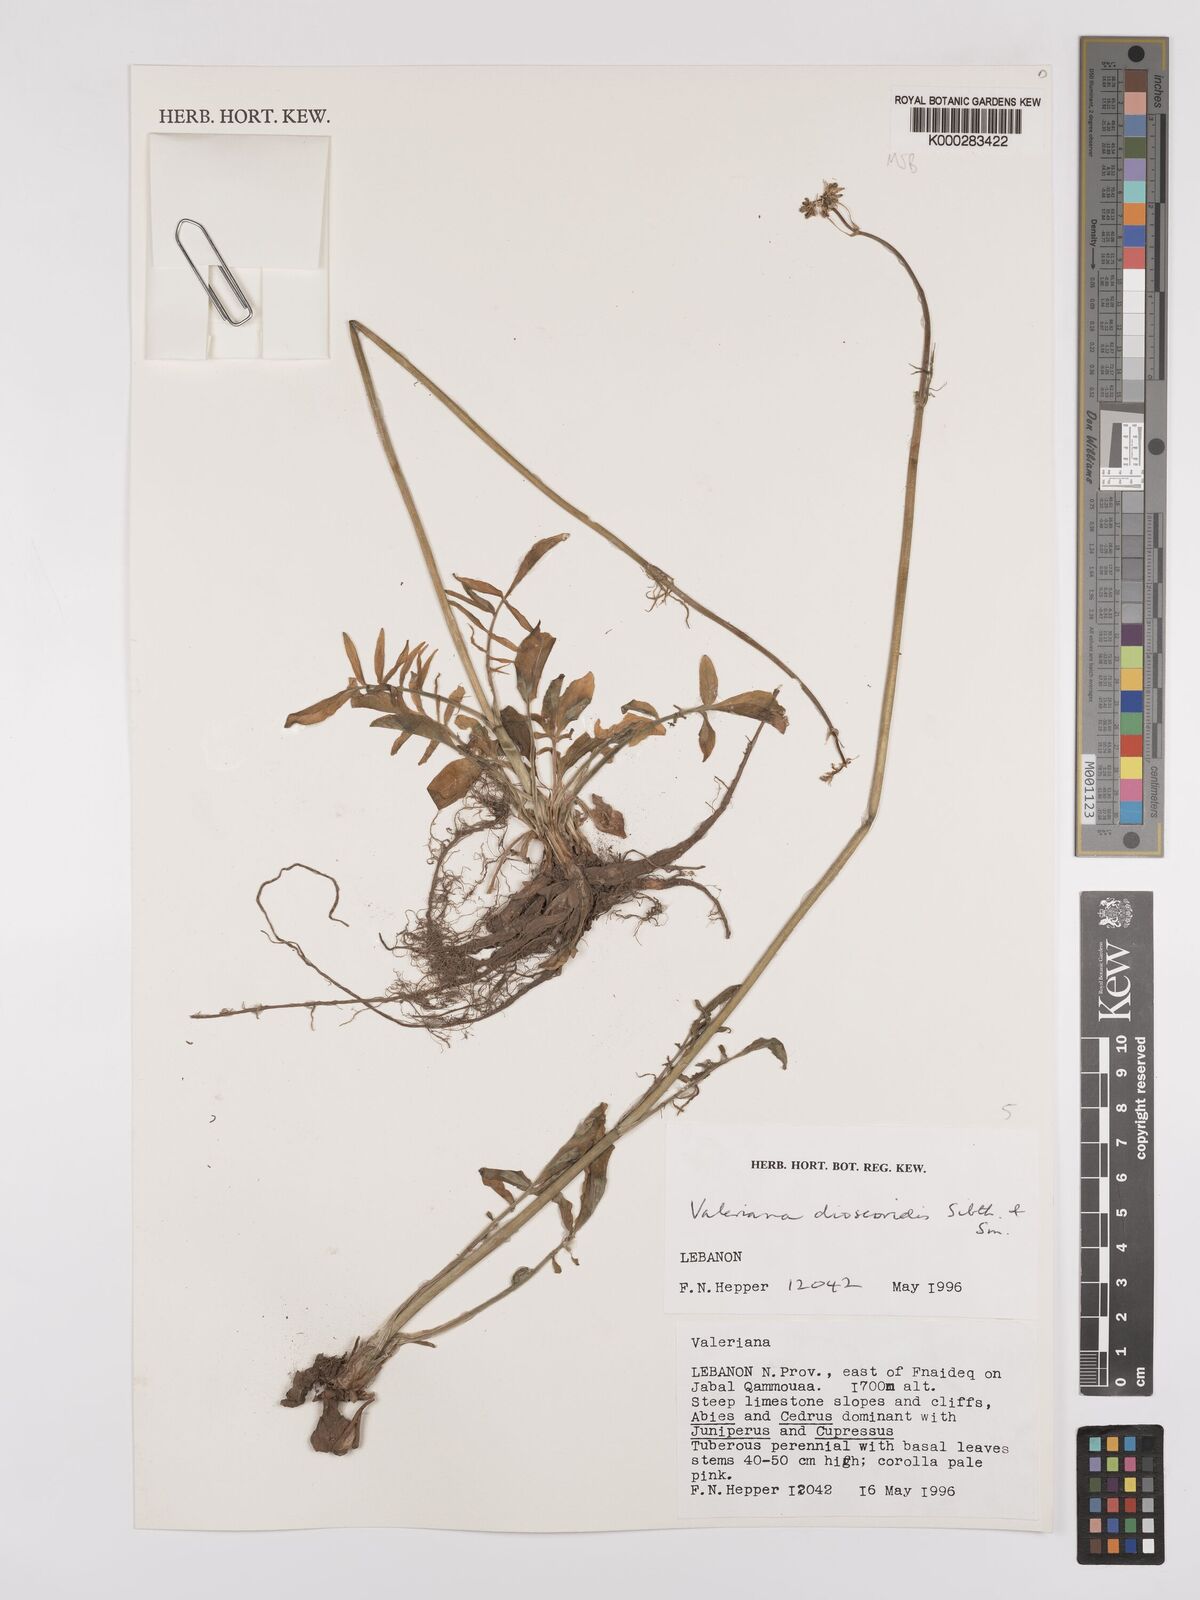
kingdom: Plantae
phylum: Tracheophyta
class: Magnoliopsida
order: Dipsacales
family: Caprifoliaceae
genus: Valeriana
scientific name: Valeriana dioscoridis
